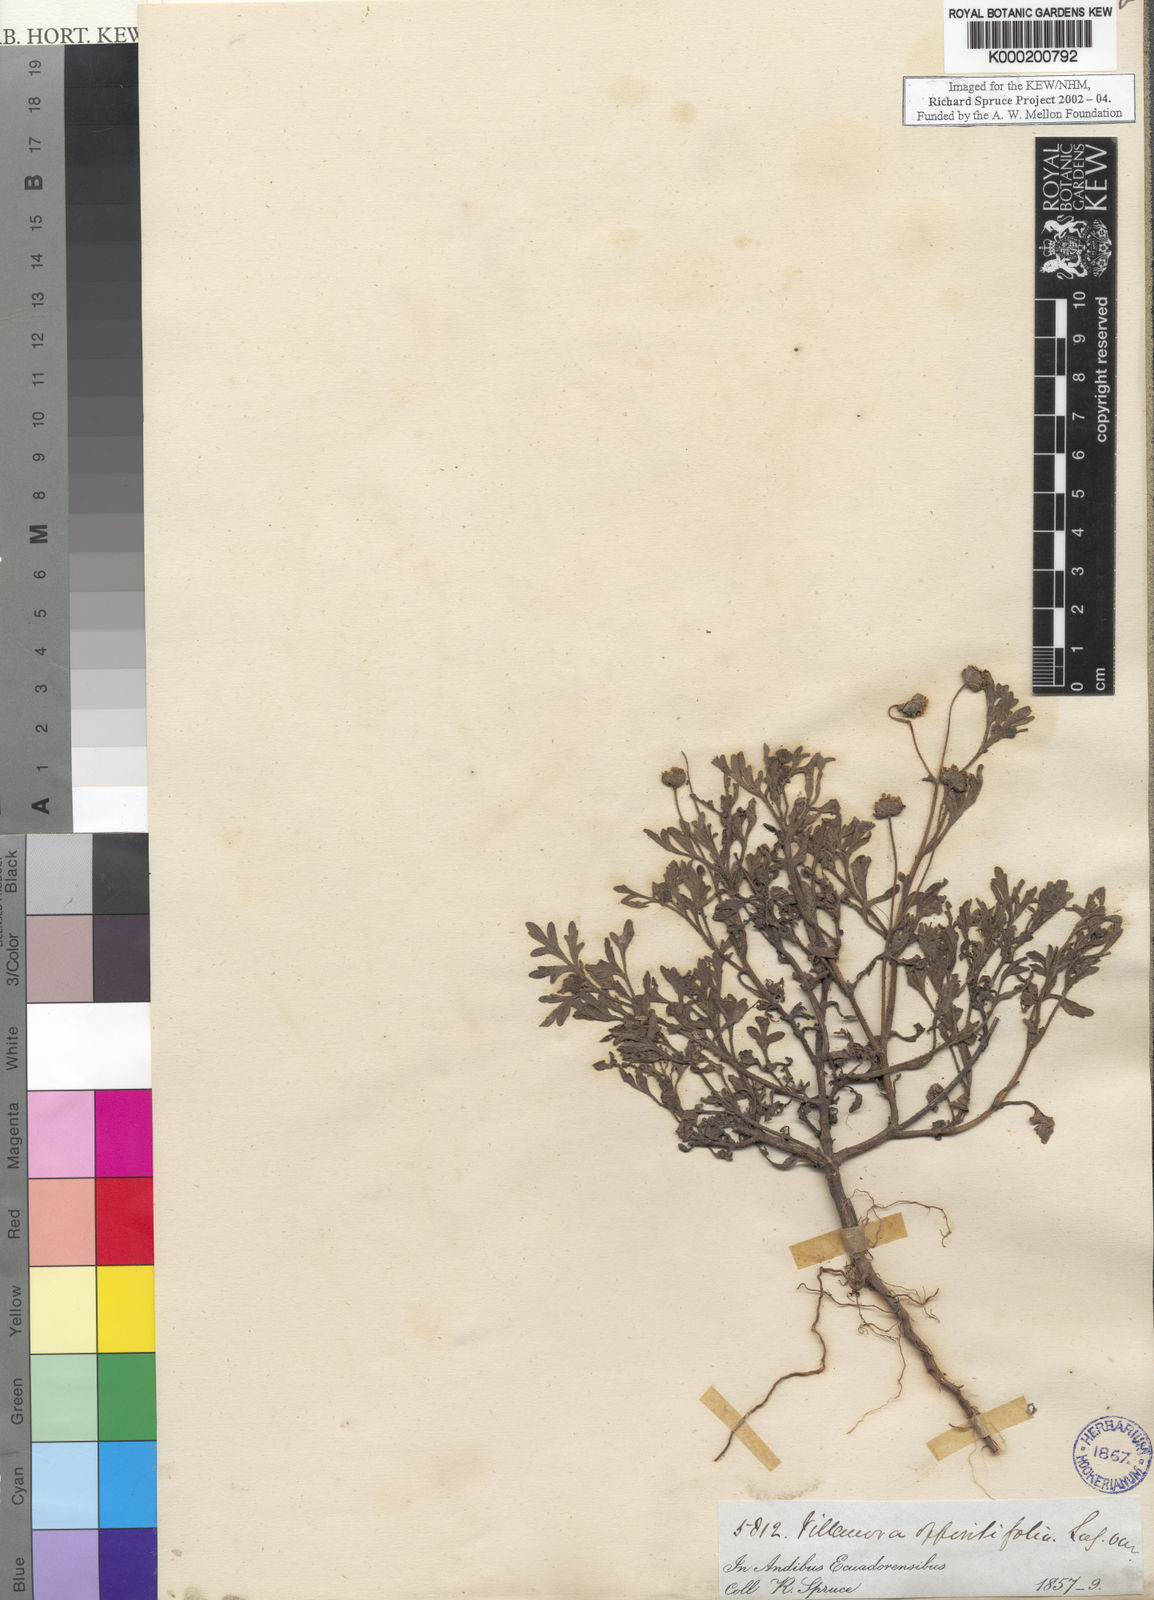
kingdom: Plantae
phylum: Tracheophyta
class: Magnoliopsida
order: Asterales
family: Asteraceae
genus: Villanova
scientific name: Villanova titicacensis
